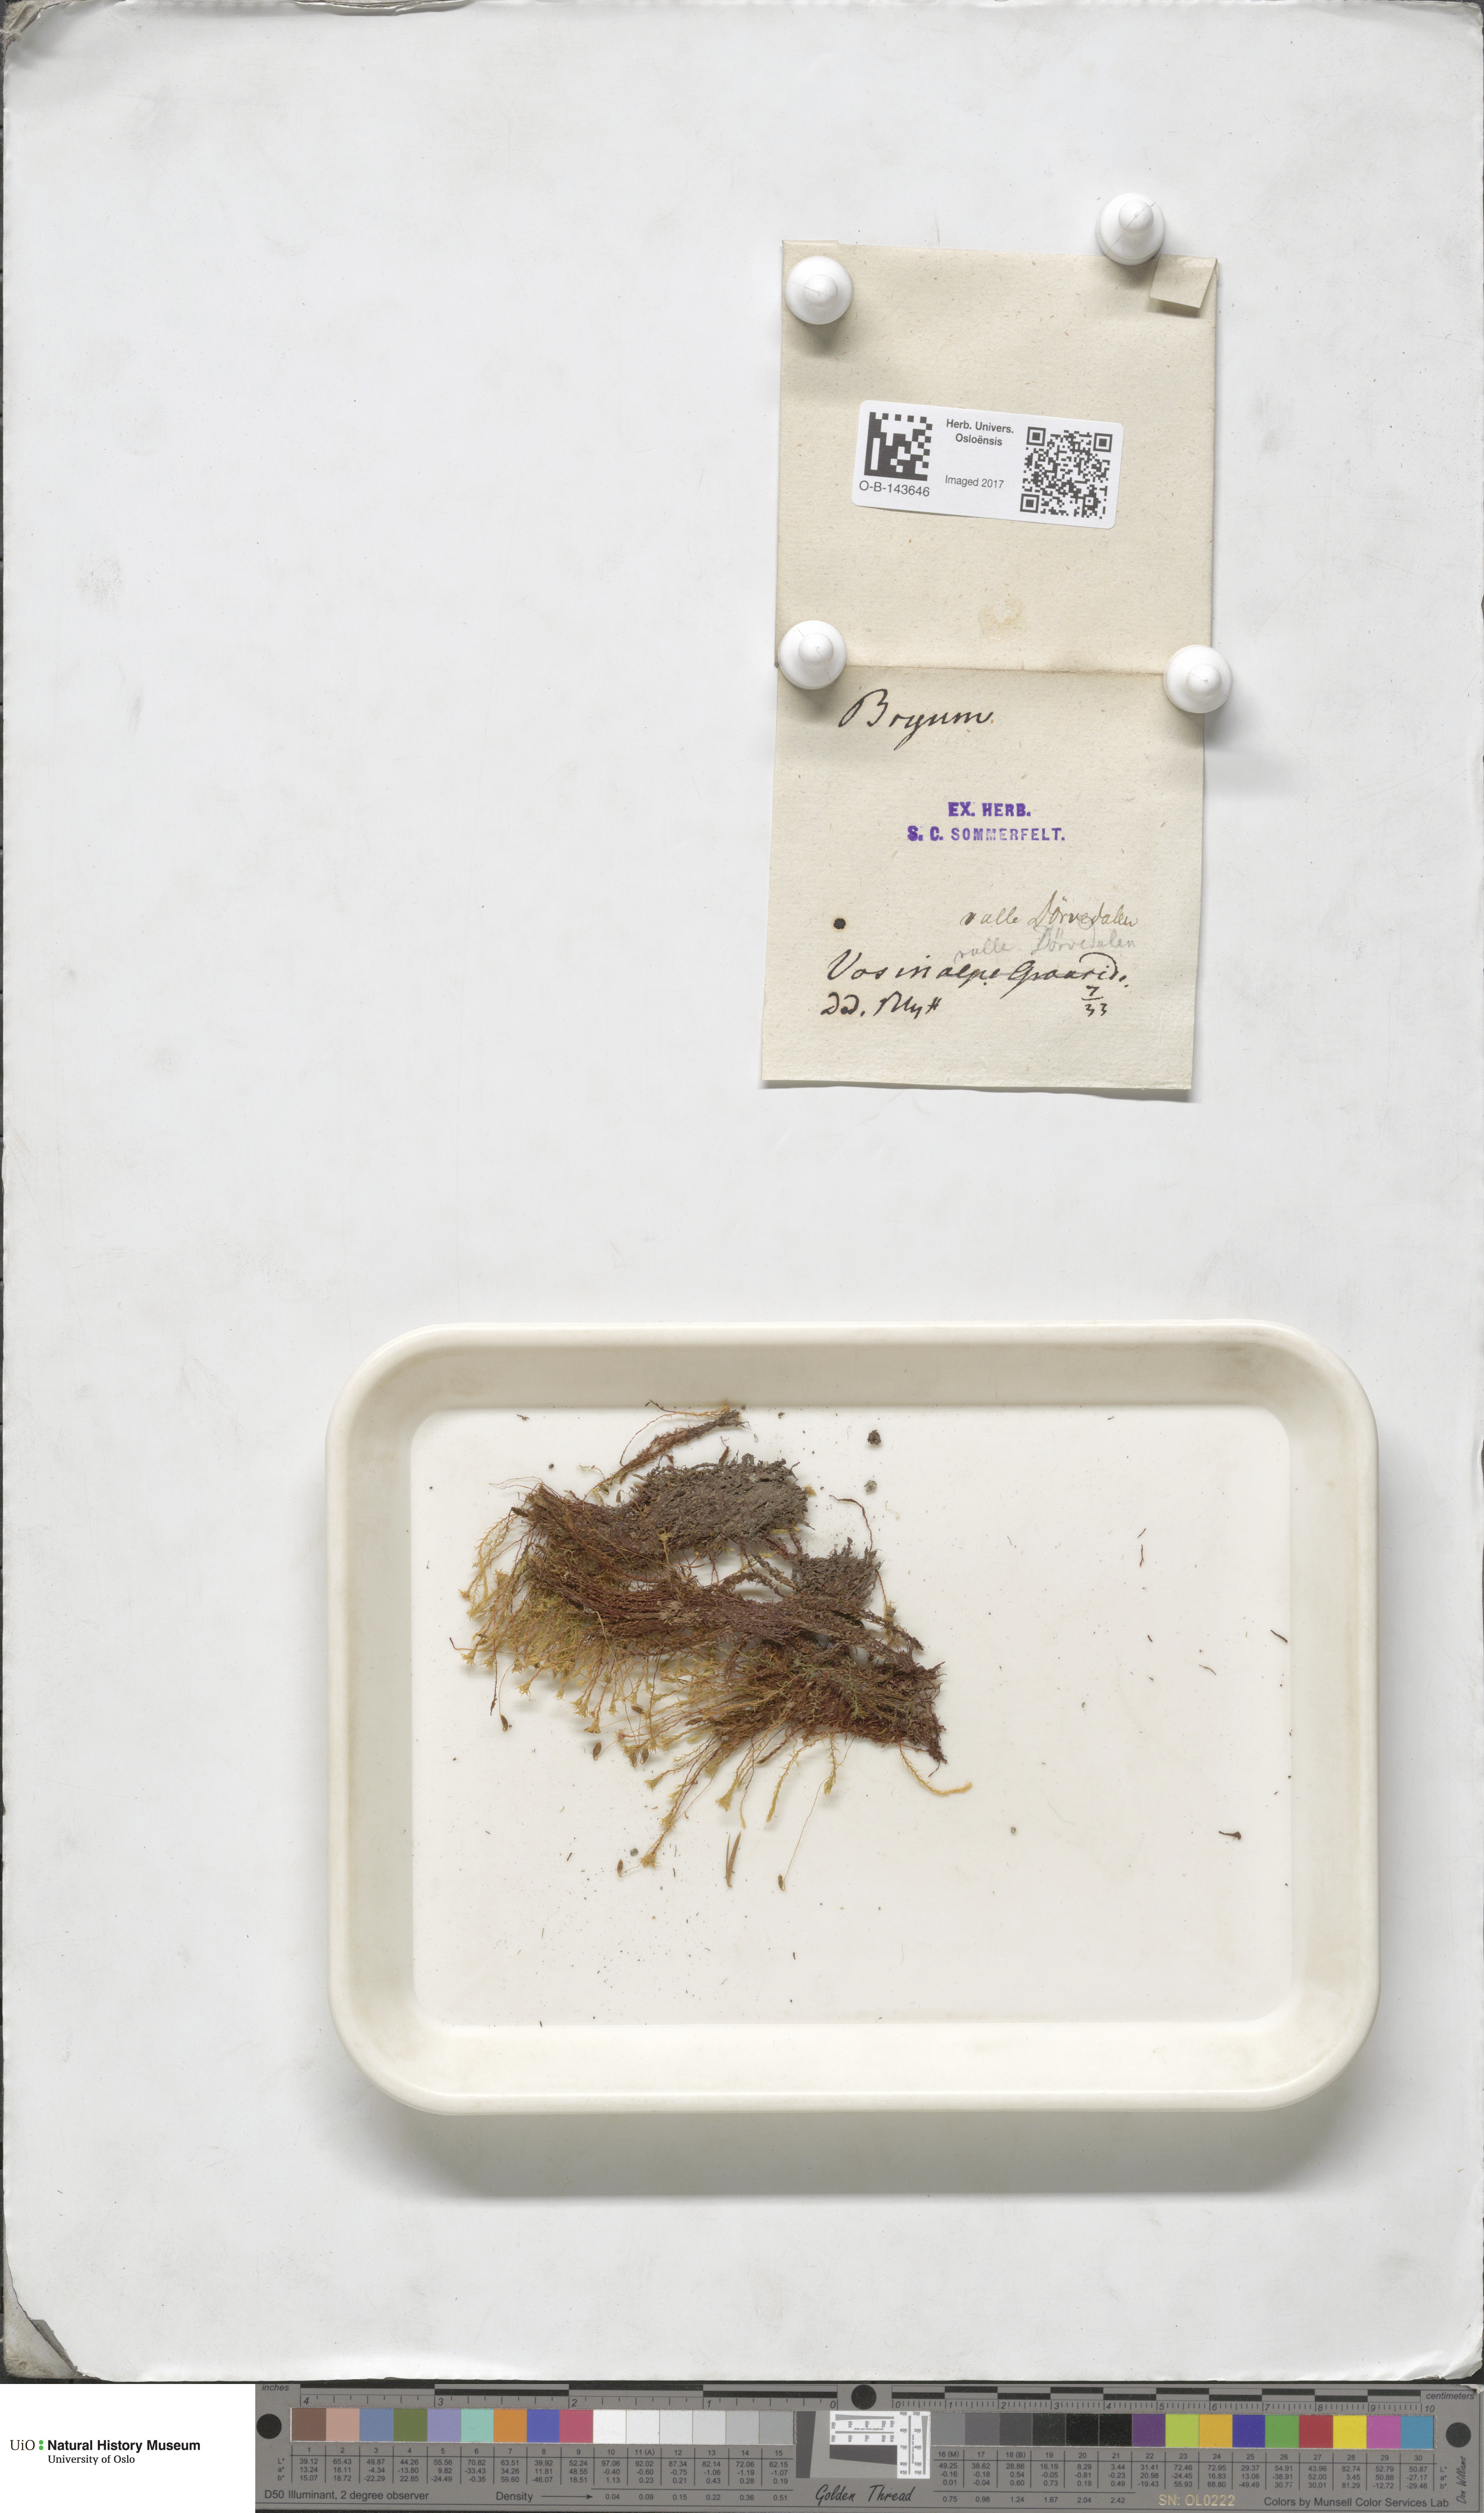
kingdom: Plantae
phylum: Bryophyta
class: Bryopsida
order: Bryales
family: Bryaceae
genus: Bryum
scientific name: Bryum
